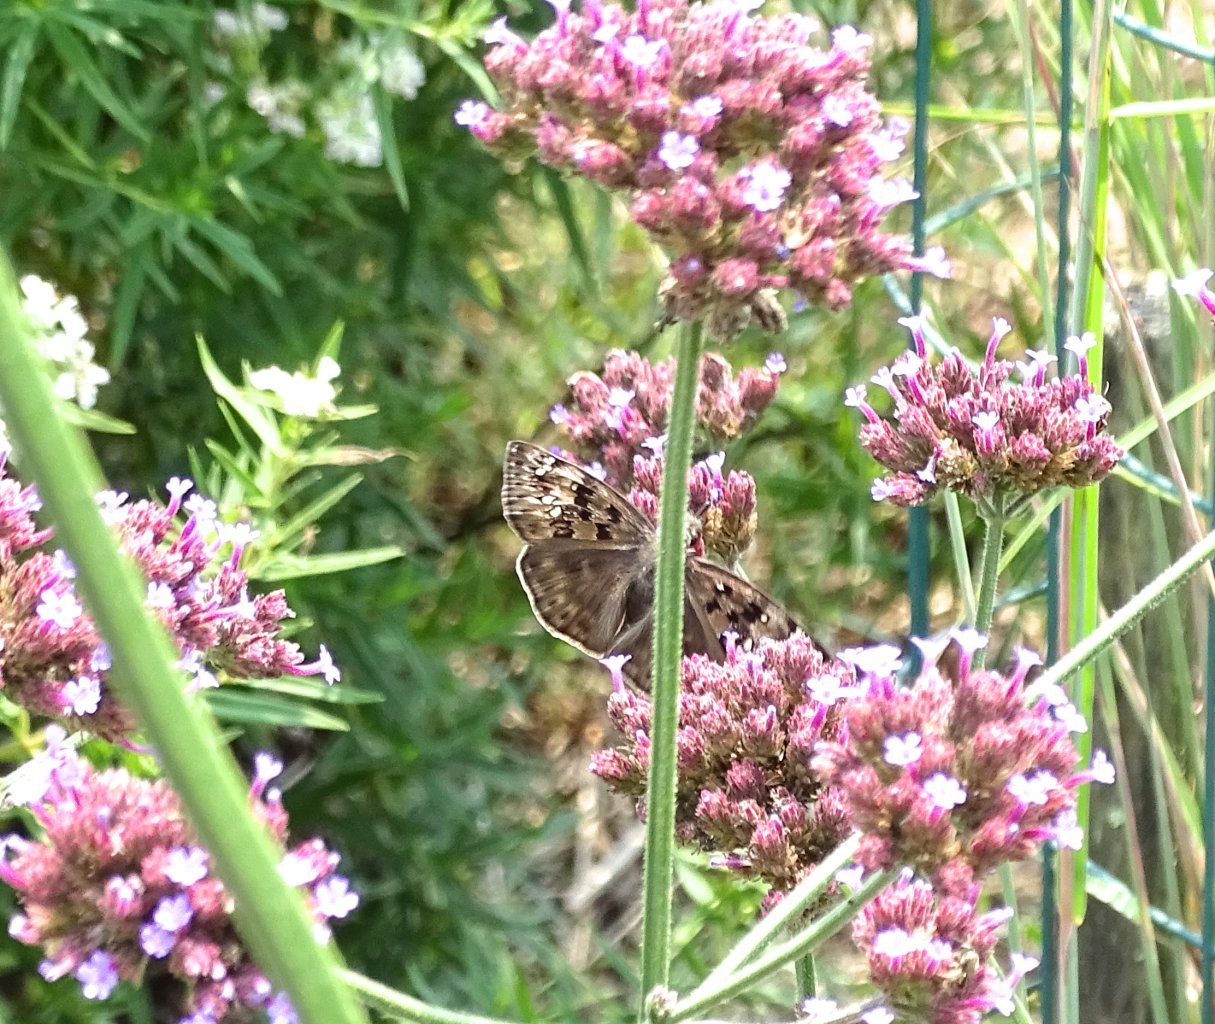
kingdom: Animalia
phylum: Arthropoda
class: Insecta
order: Lepidoptera
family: Hesperiidae
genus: Gesta
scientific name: Gesta
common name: Horace's Duskywing
